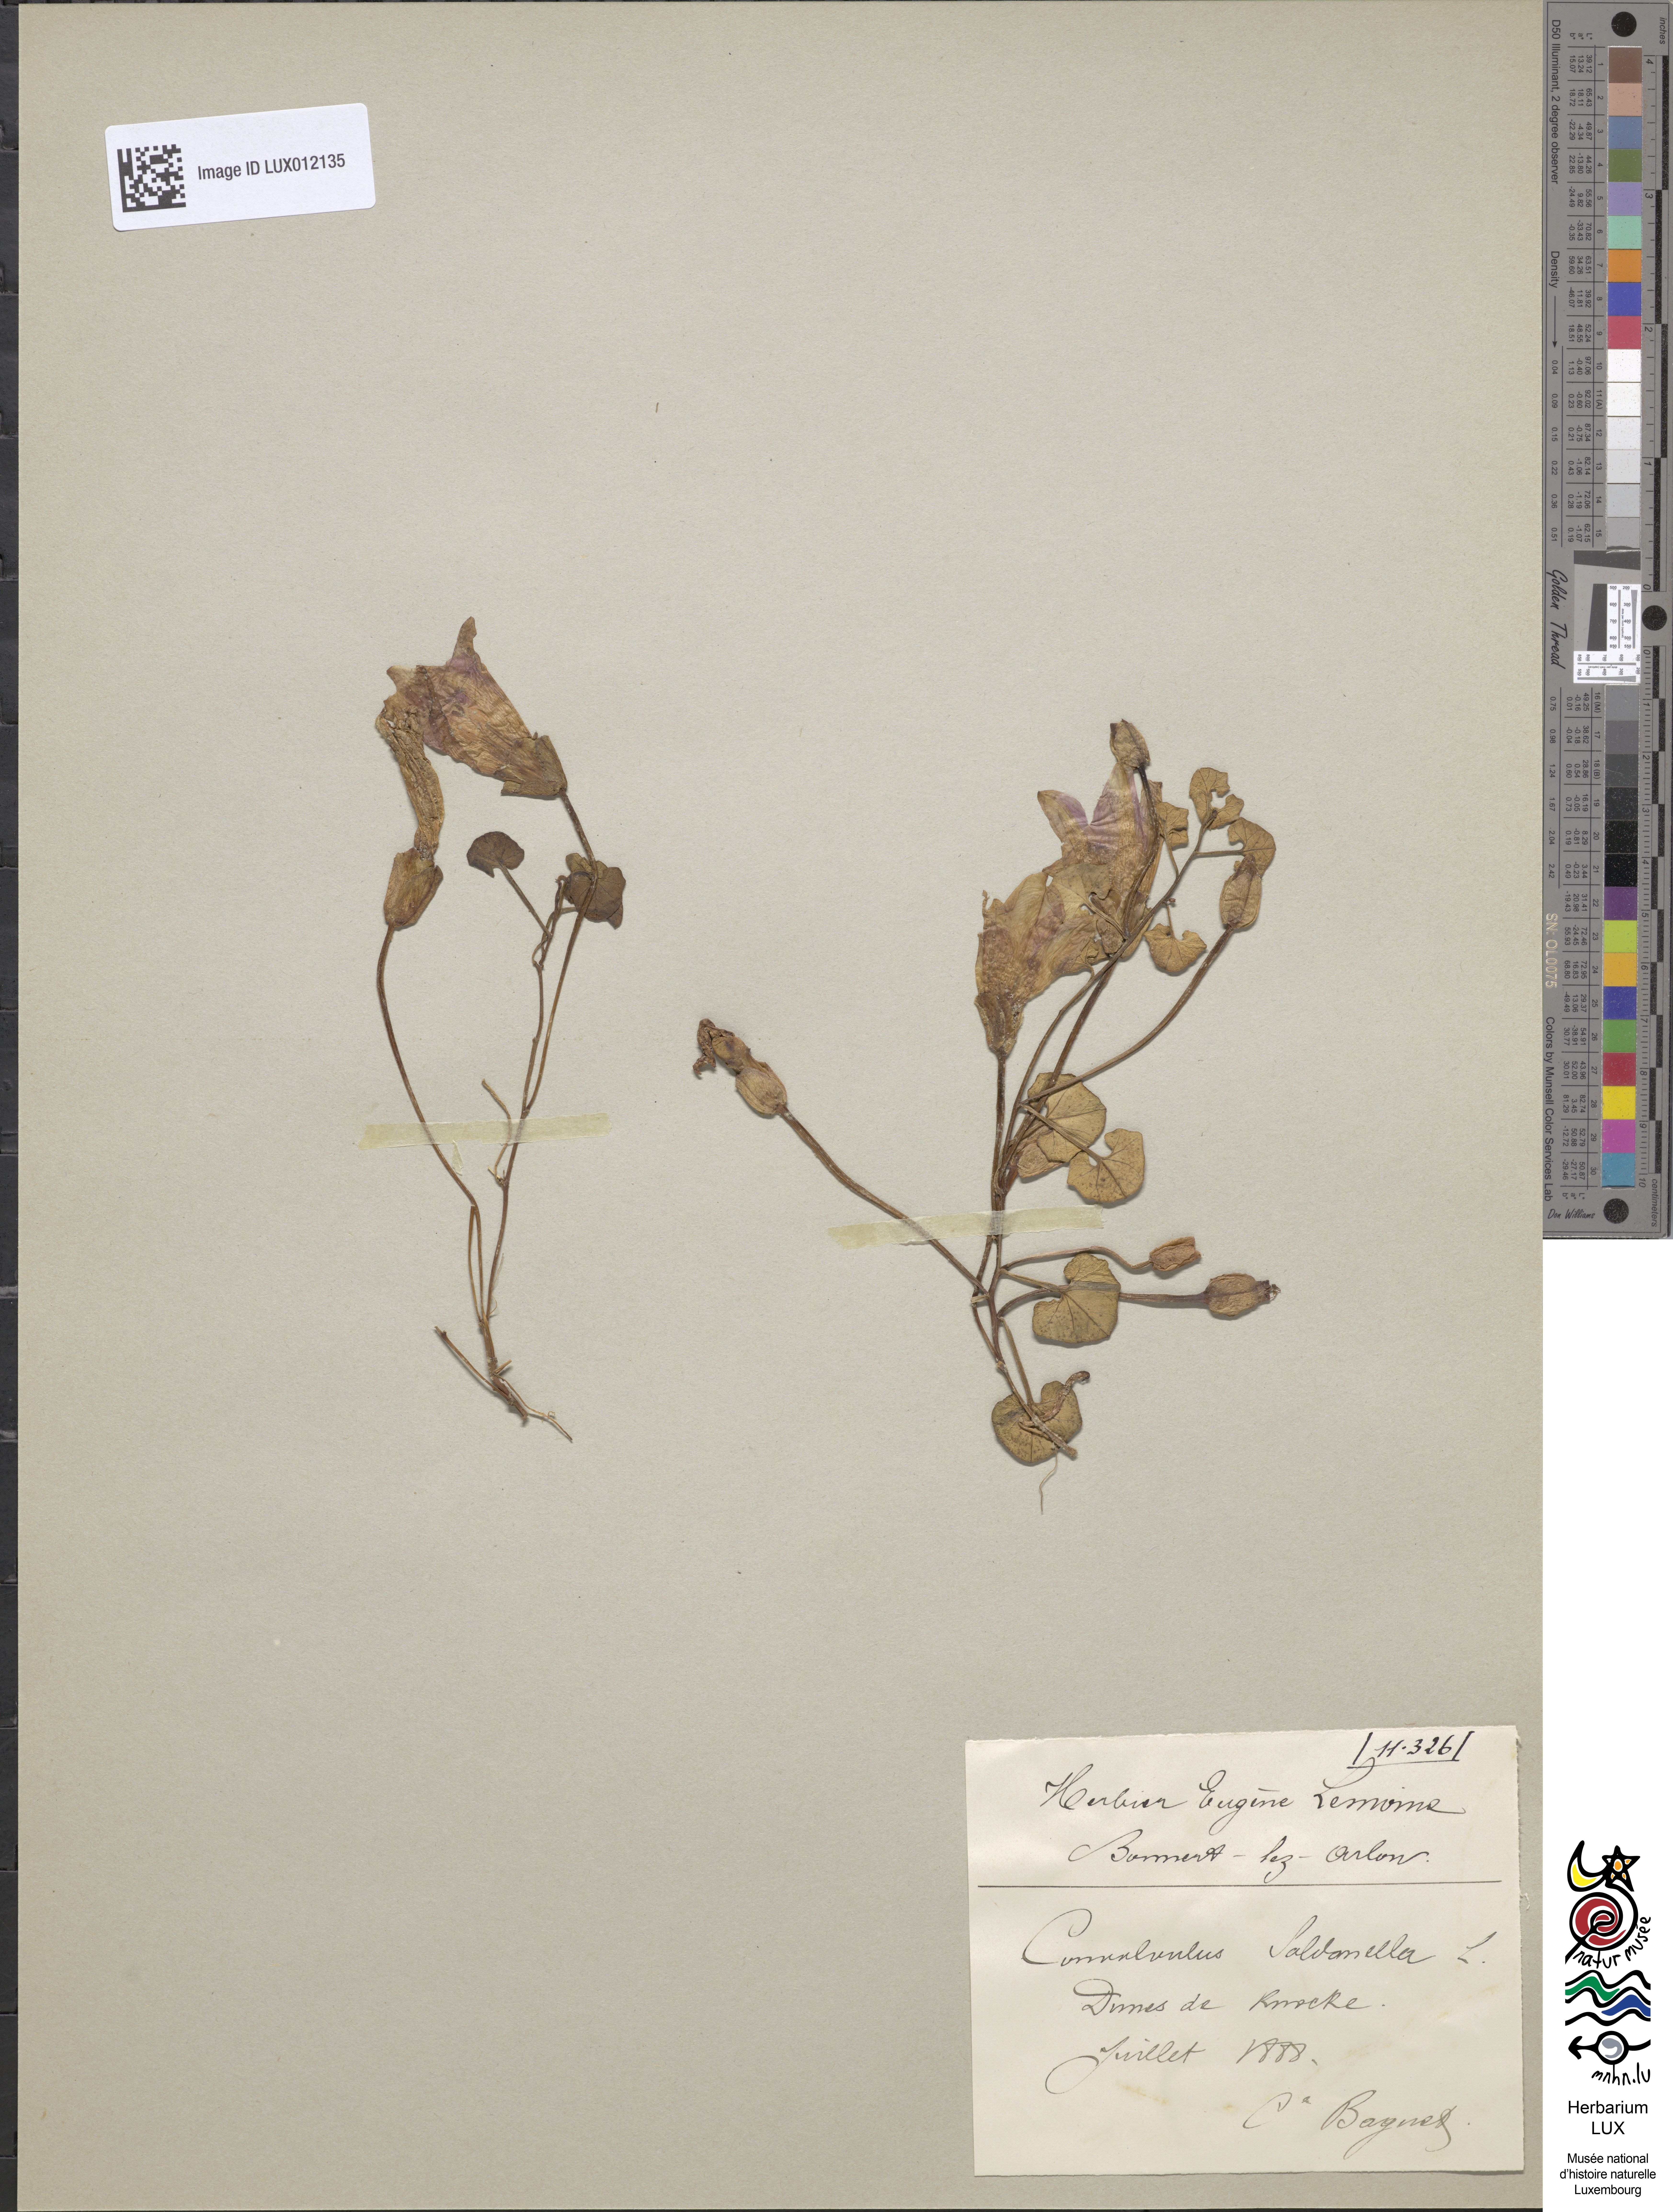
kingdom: Plantae
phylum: Tracheophyta
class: Magnoliopsida
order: Solanales
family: Convolvulaceae
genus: Calystegia
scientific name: Calystegia soldanella
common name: Sea bindweed
